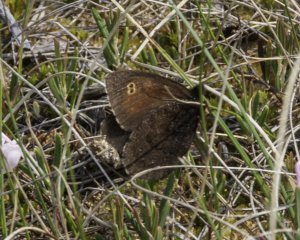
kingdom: Animalia
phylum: Arthropoda
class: Insecta
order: Lepidoptera
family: Nymphalidae
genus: Erebia
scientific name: Erebia rossii
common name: Ross's Alpine
